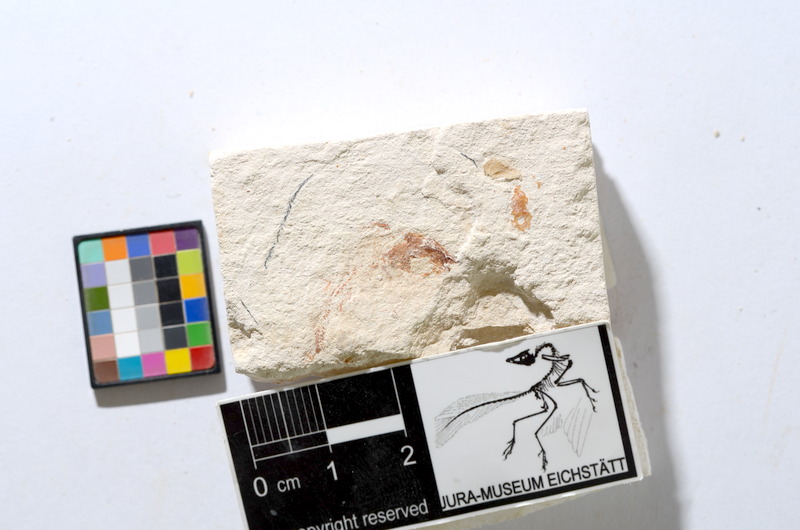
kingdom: Animalia
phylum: Chordata
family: Ascalaboidae
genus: Tharsis
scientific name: Tharsis dubius
